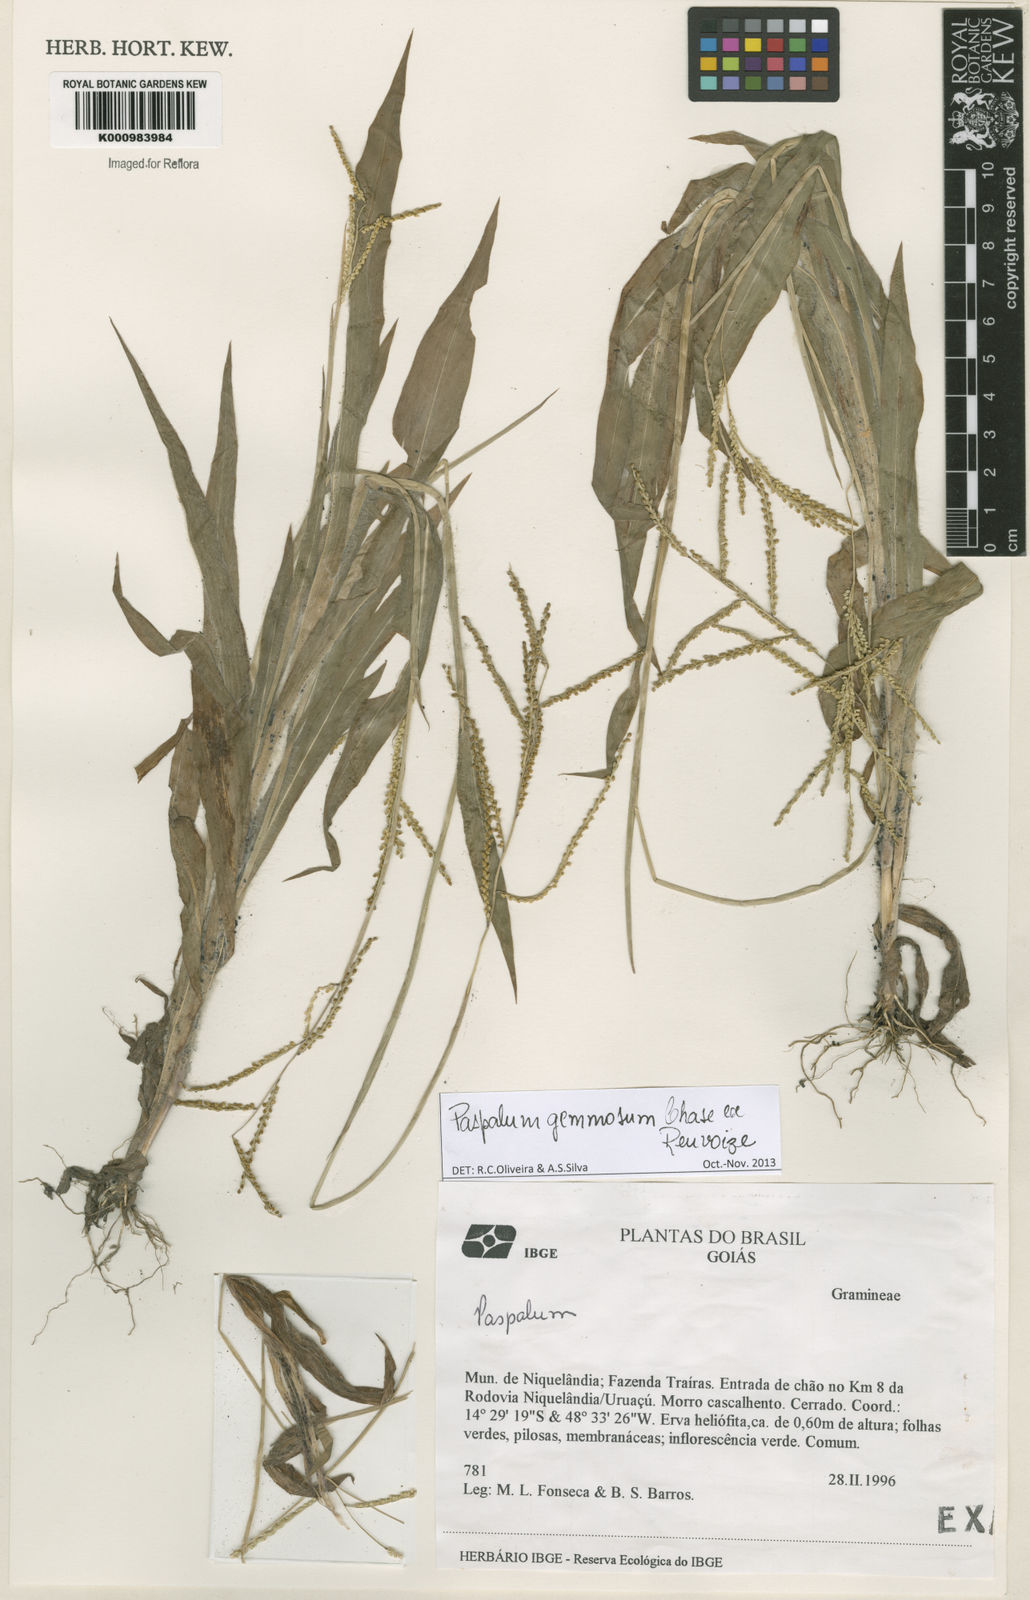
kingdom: Plantae
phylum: Tracheophyta
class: Liliopsida
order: Poales
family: Poaceae
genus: Paspalum
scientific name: Paspalum subsesquiglume
